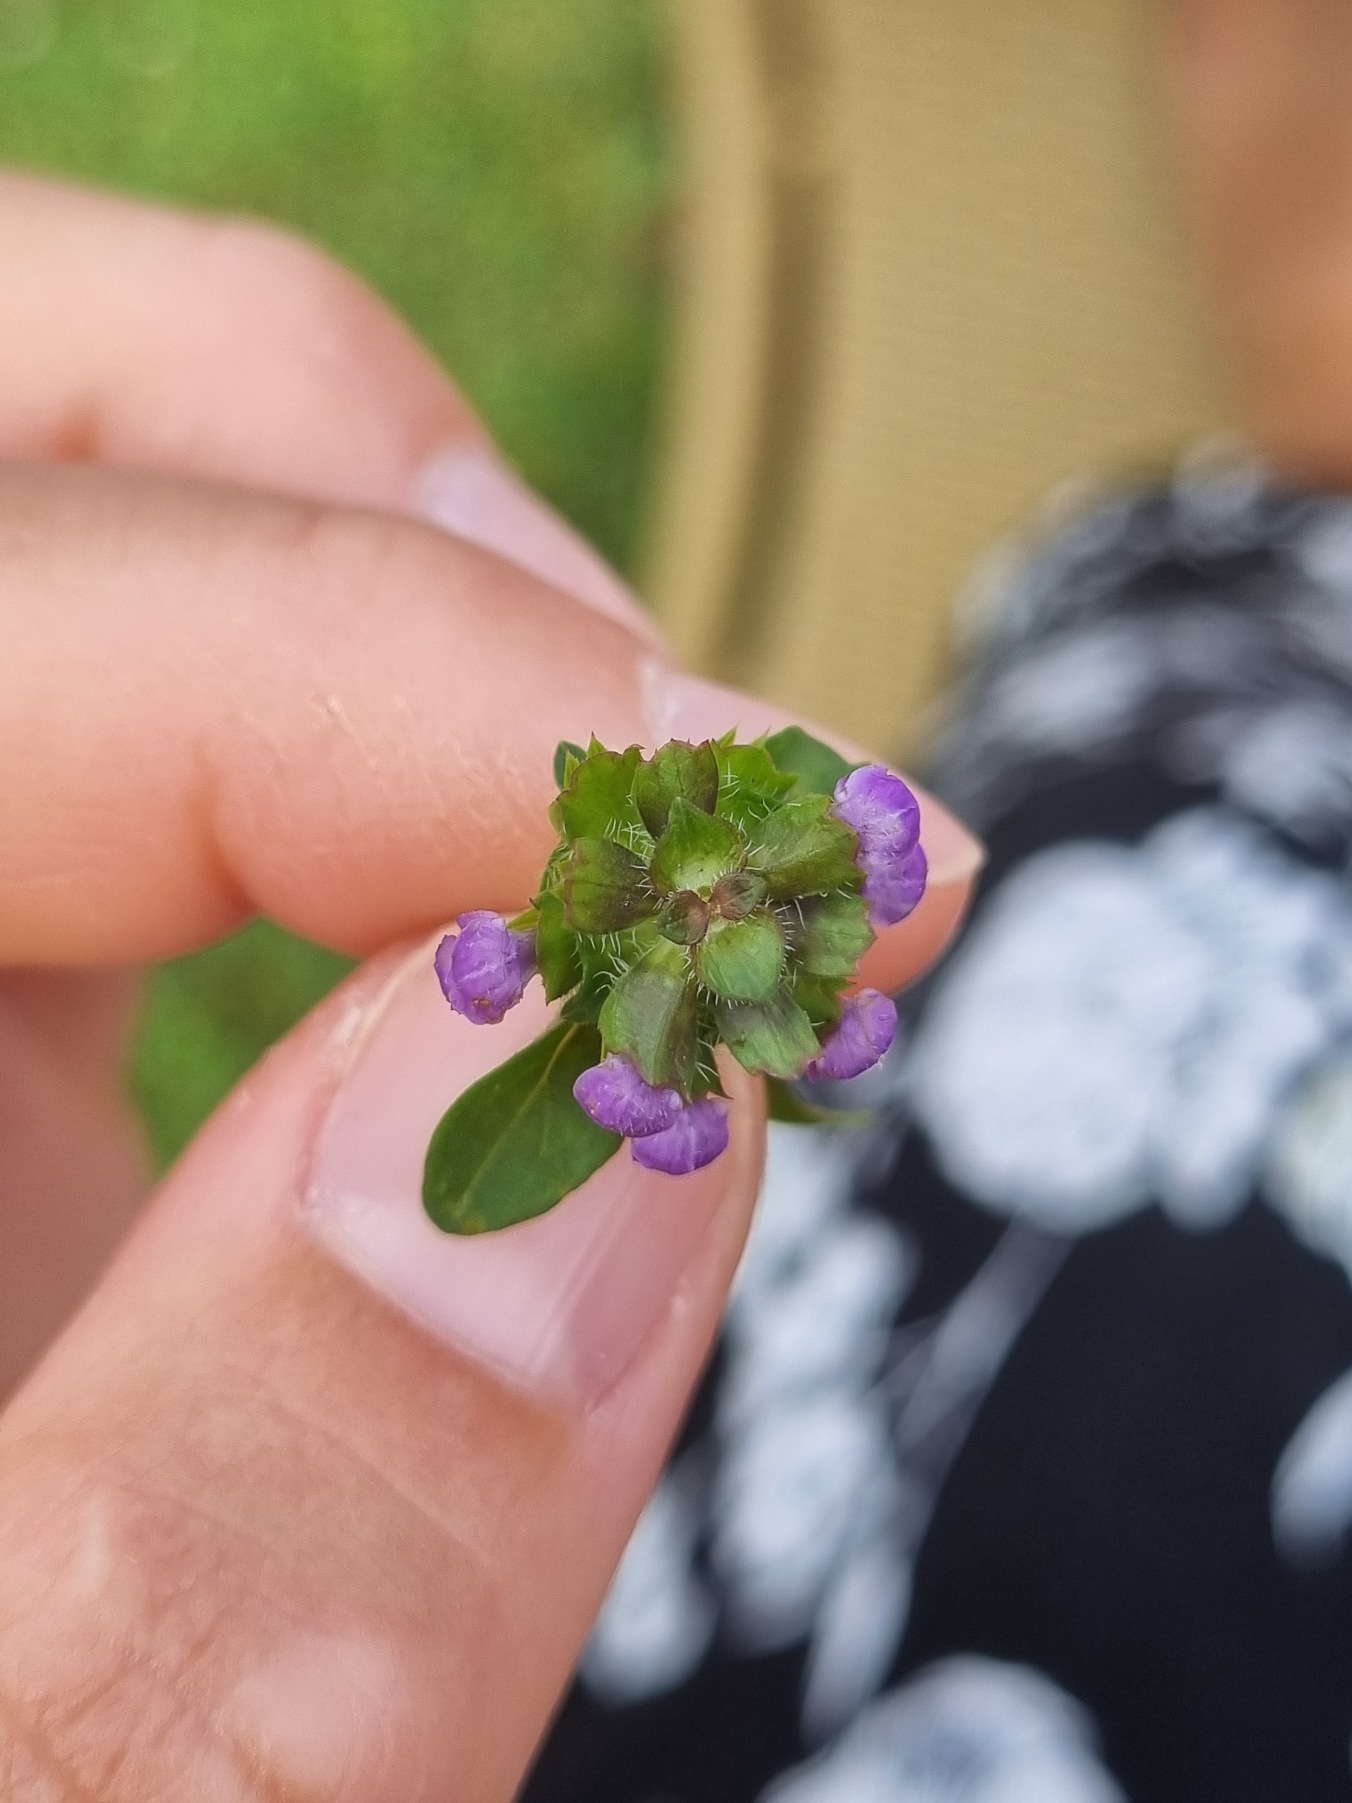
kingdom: Plantae
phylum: Tracheophyta
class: Magnoliopsida
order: Lamiales
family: Lamiaceae
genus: Prunella
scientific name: Prunella vulgaris
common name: Almindelig brunelle
